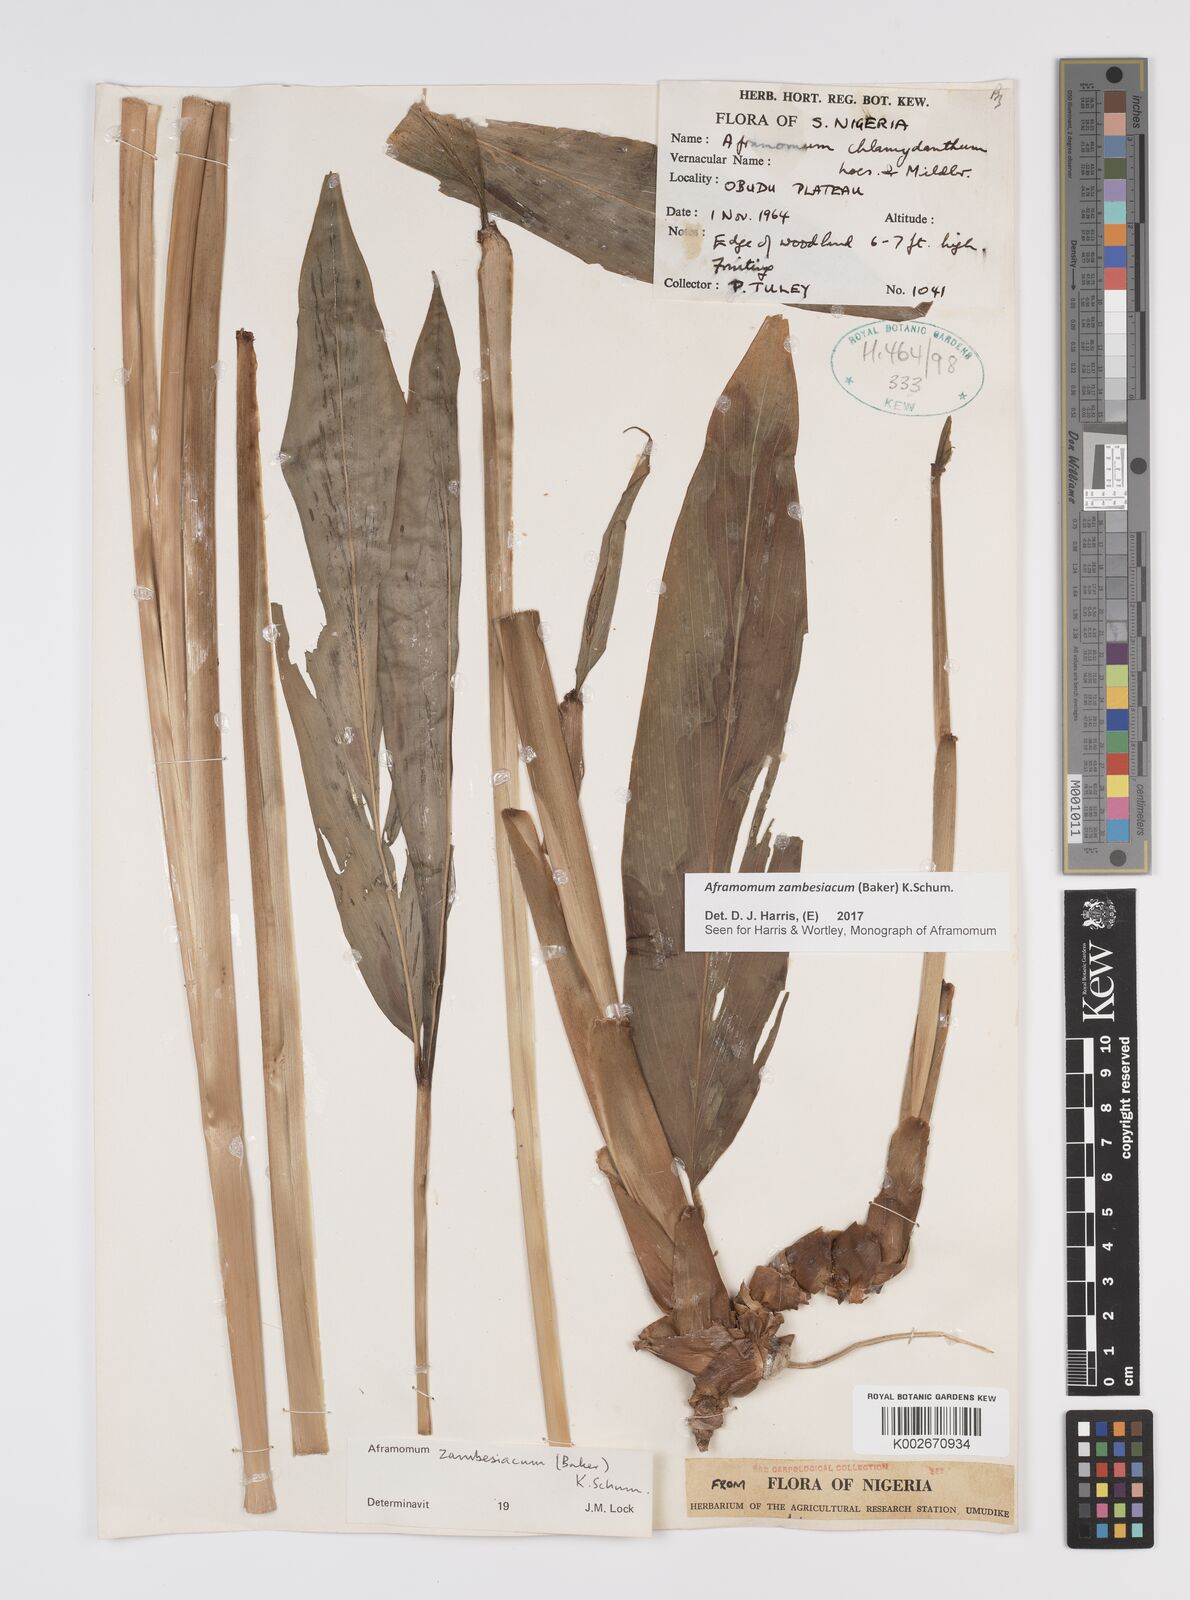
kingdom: Plantae
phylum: Tracheophyta
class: Liliopsida
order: Zingiberales
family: Zingiberaceae
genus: Aframomum
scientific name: Aframomum zambesiacum
